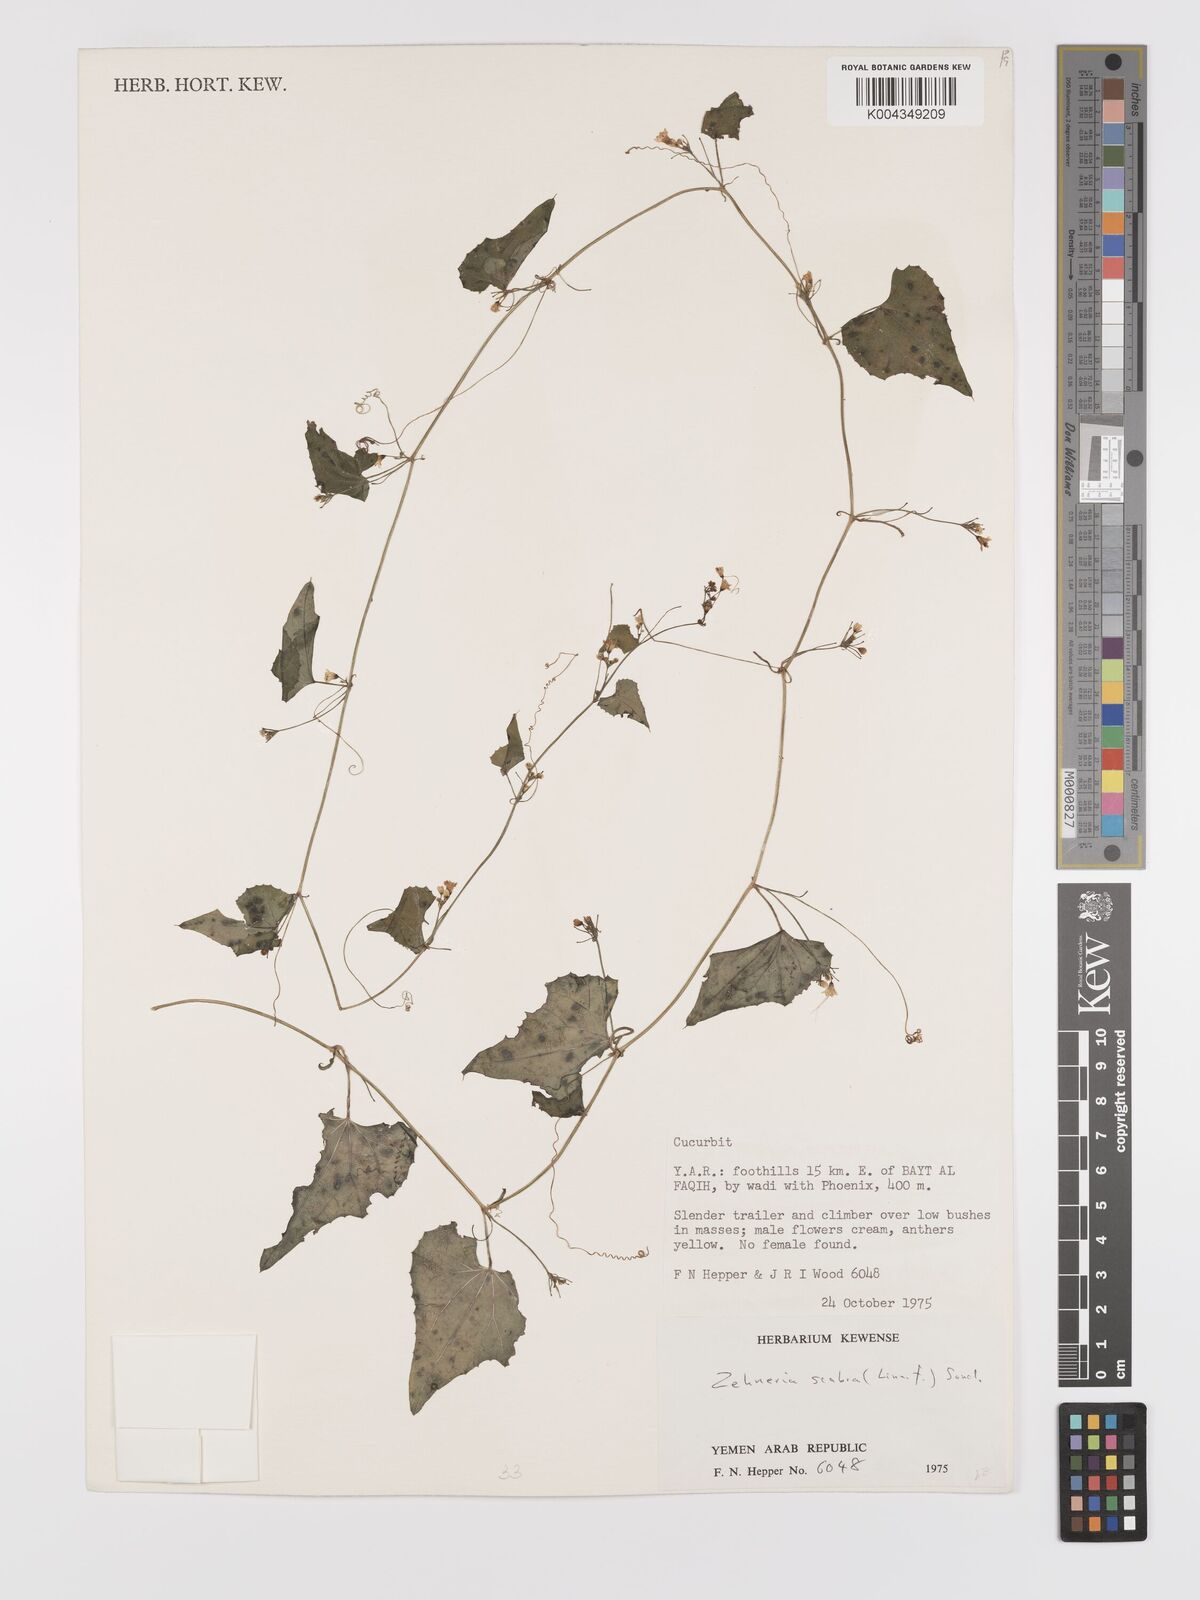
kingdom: Plantae
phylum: Tracheophyta
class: Magnoliopsida
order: Cucurbitales
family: Cucurbitaceae
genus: Zehneria
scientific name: Zehneria scabra
